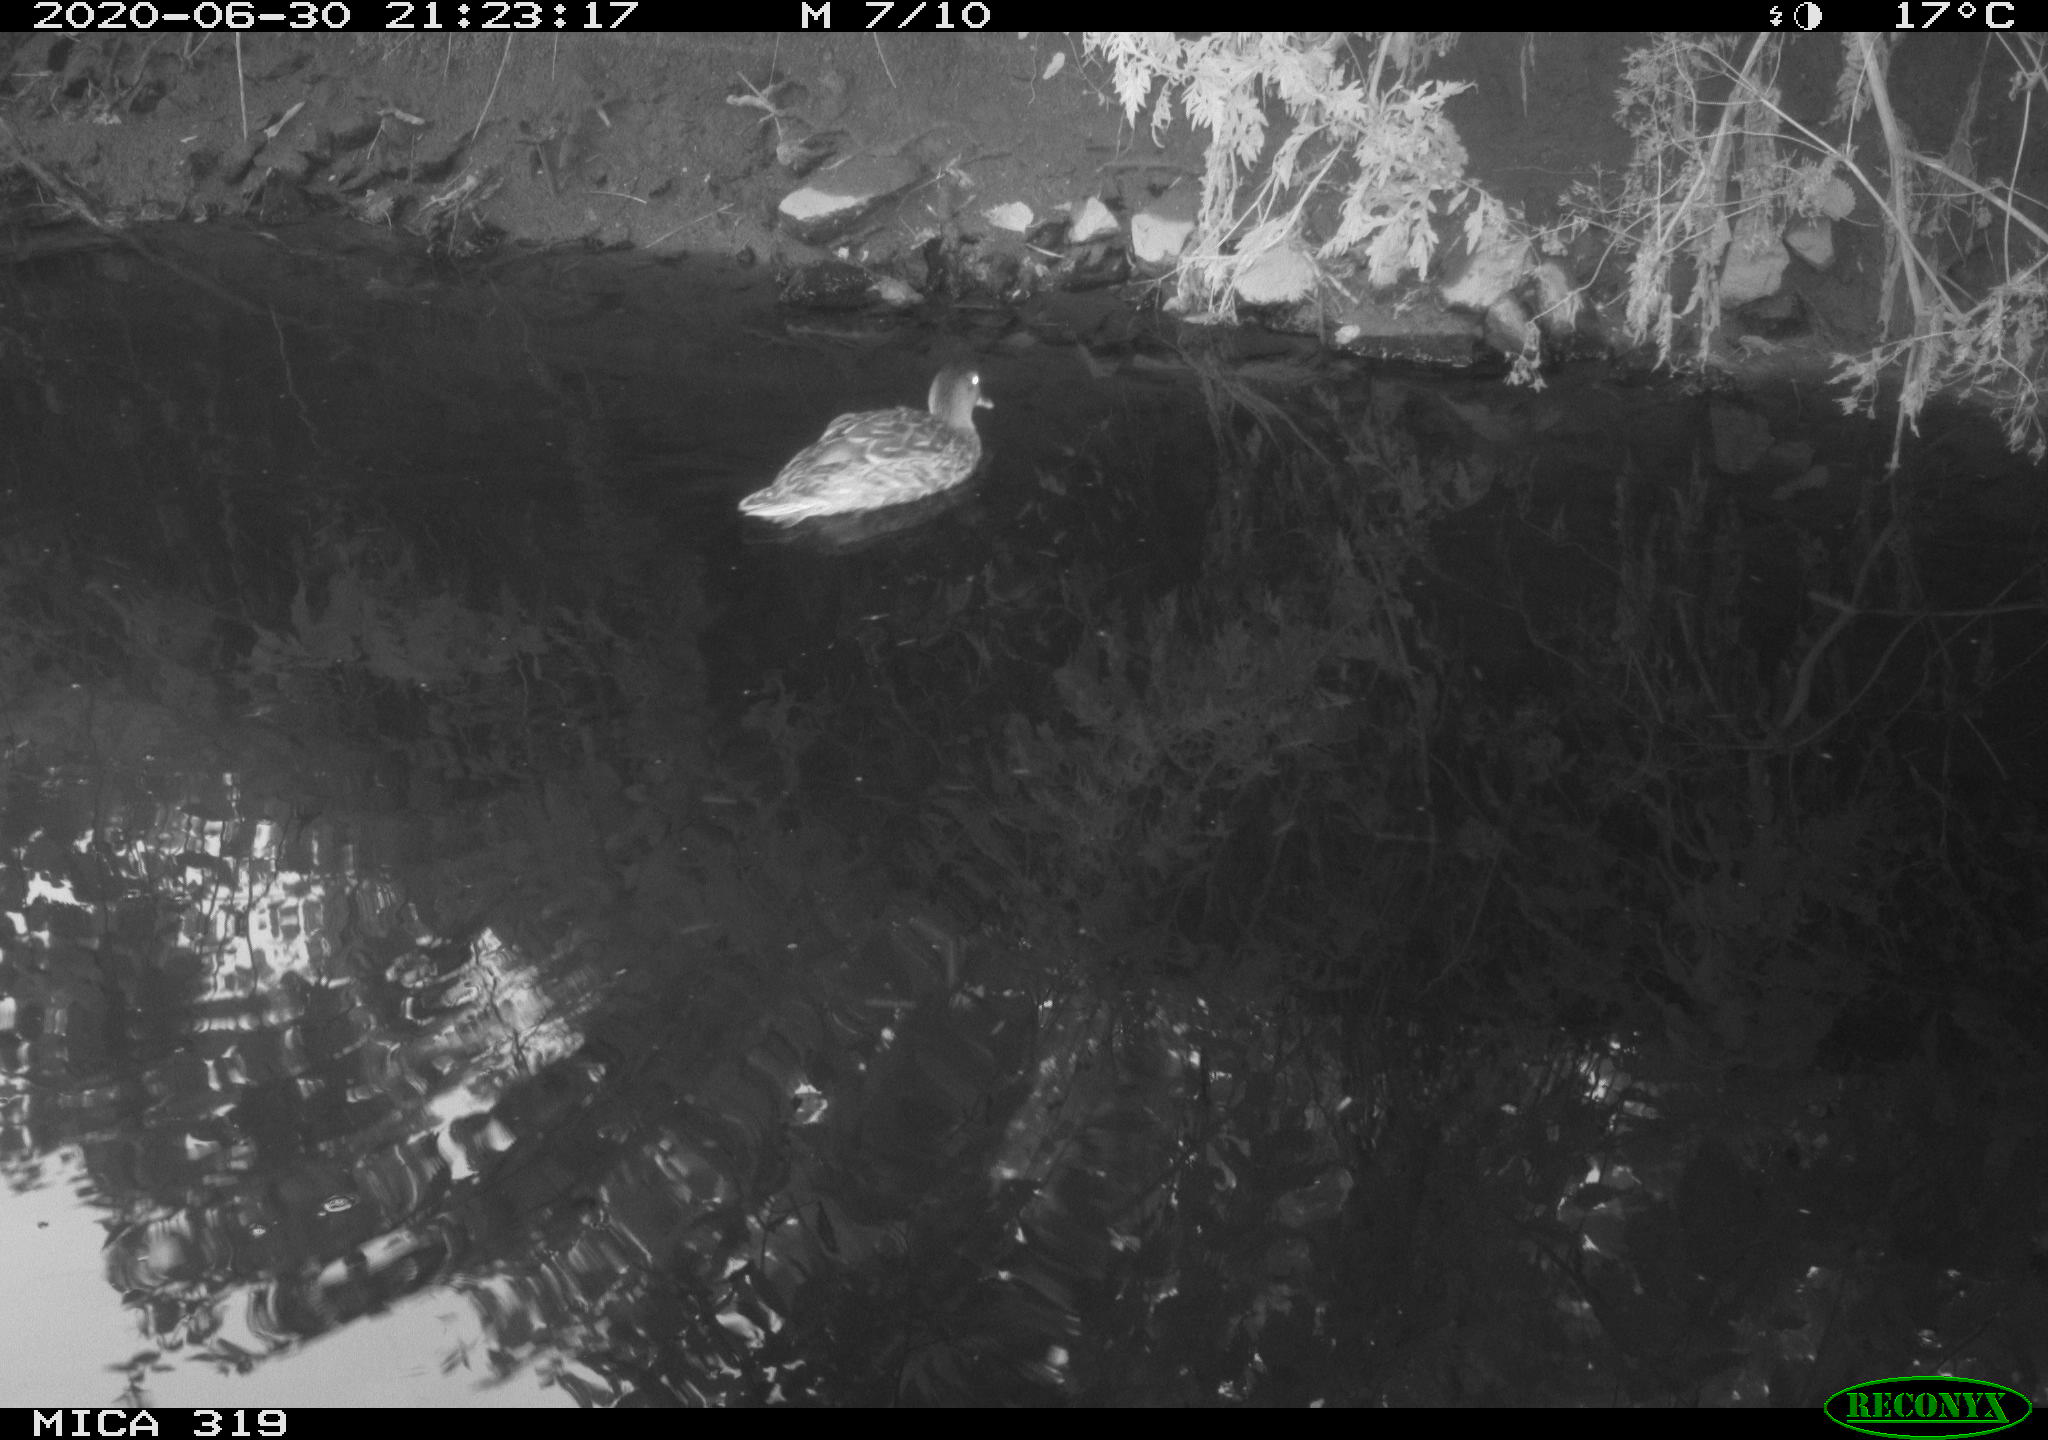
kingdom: Animalia
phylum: Chordata
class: Aves
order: Anseriformes
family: Anatidae
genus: Anas
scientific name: Anas platyrhynchos
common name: Mallard
